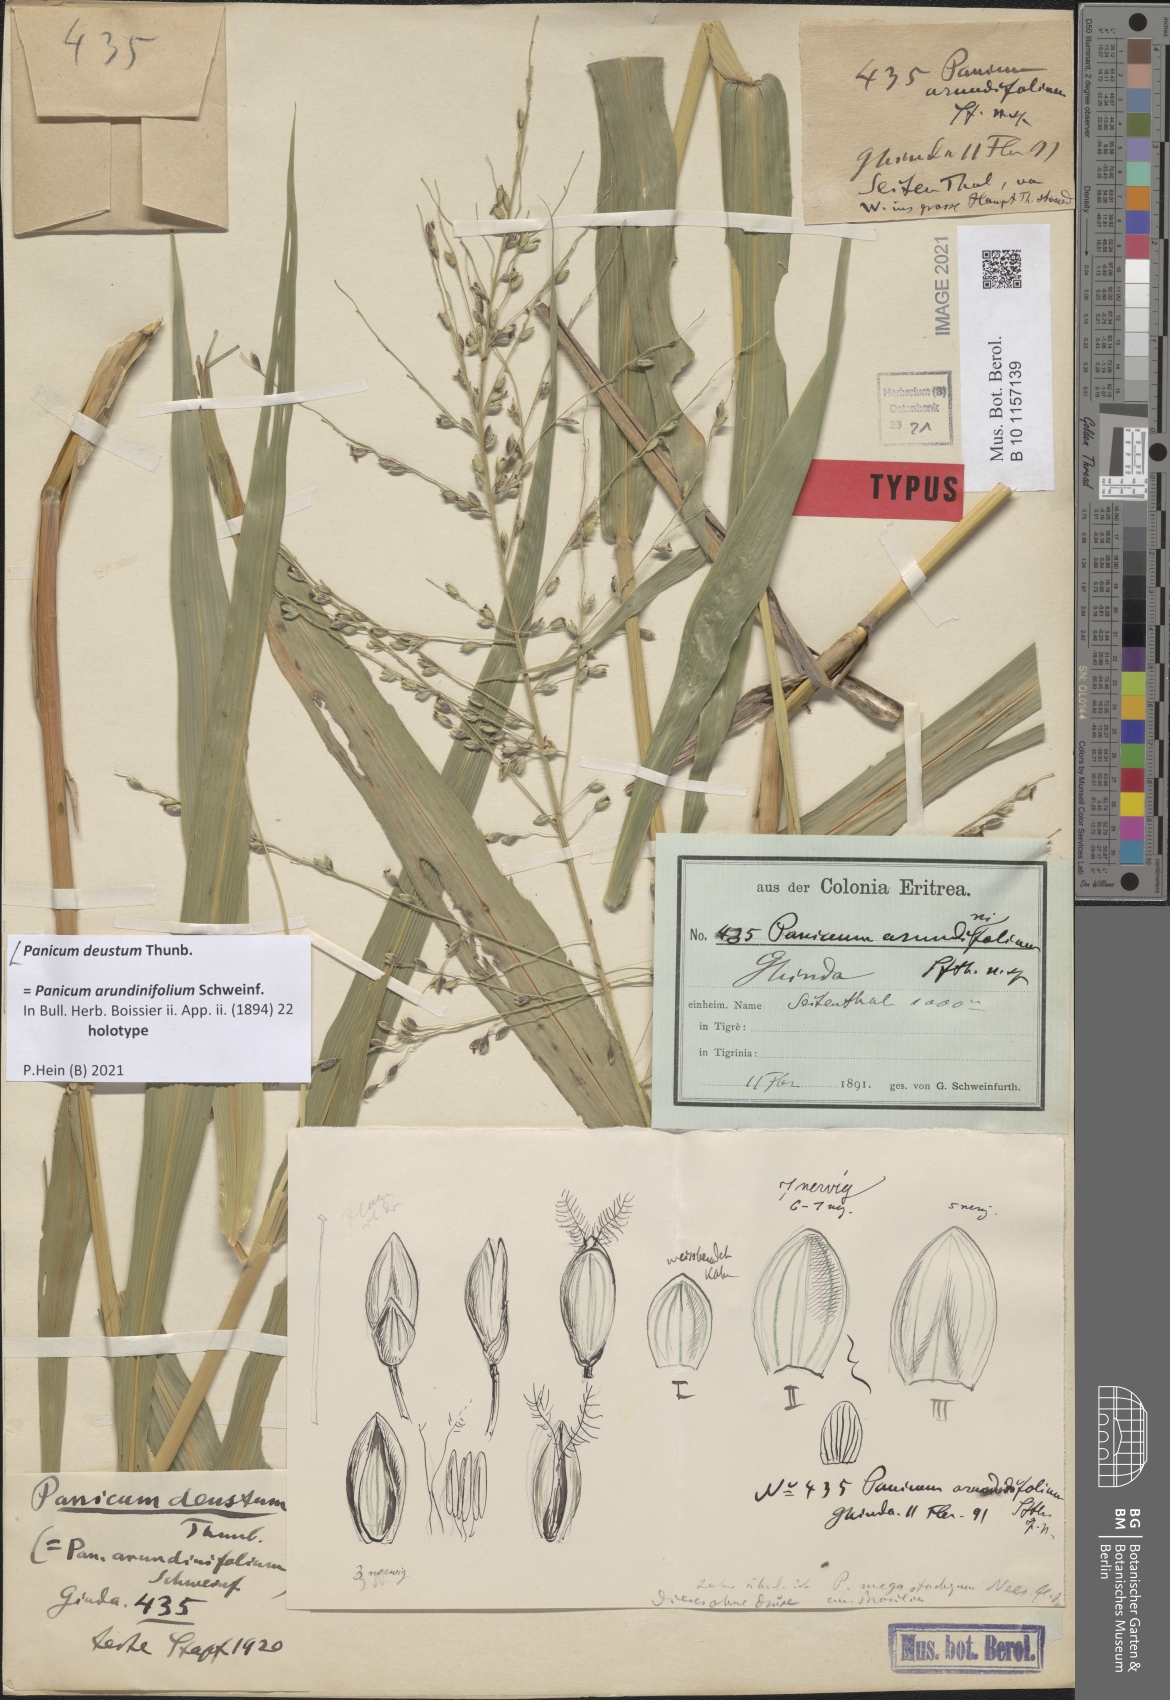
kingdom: Plantae
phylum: Tracheophyta
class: Liliopsida
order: Poales
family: Poaceae
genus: Panicum
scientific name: Panicum deustum
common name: Reed panicum
